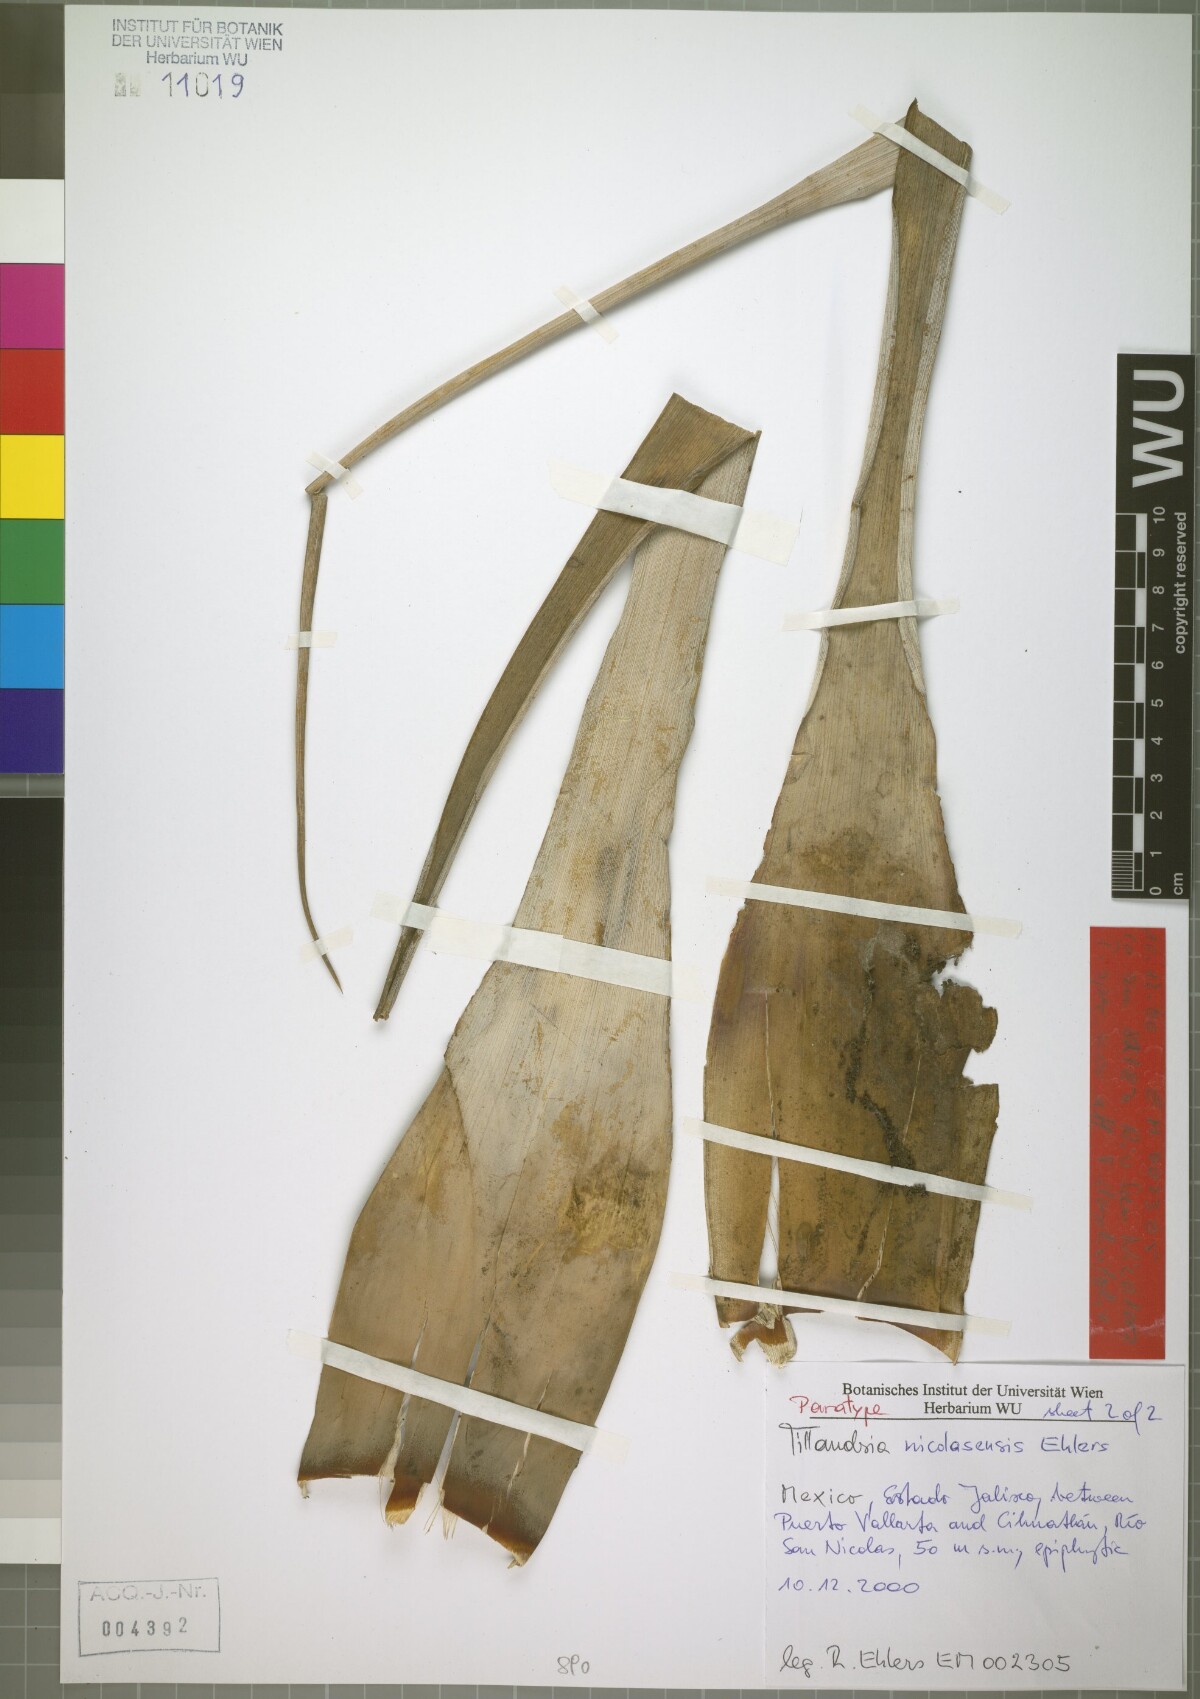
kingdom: Plantae
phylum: Tracheophyta
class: Liliopsida
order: Poales
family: Bromeliaceae
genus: Tillandsia
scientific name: Tillandsia nicolasensis
